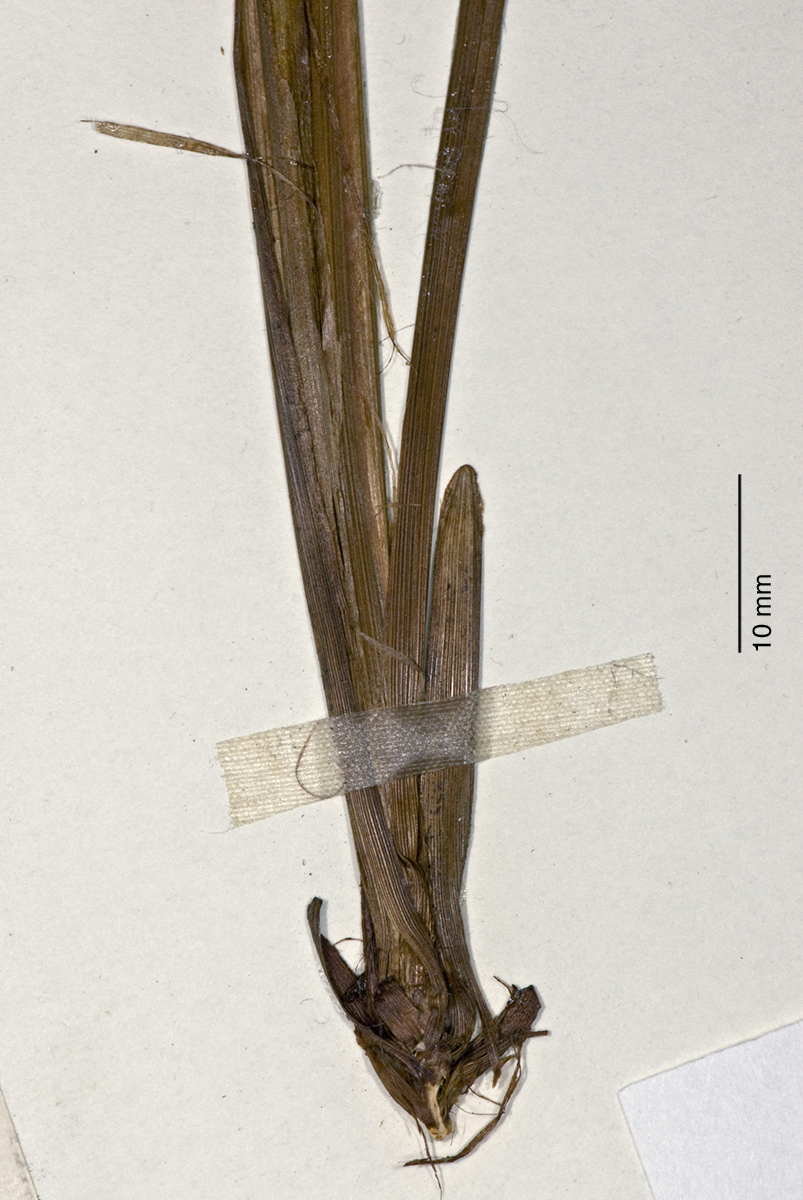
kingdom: Plantae
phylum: Tracheophyta
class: Liliopsida
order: Poales
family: Cyperaceae
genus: Carex
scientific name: Carex potens
